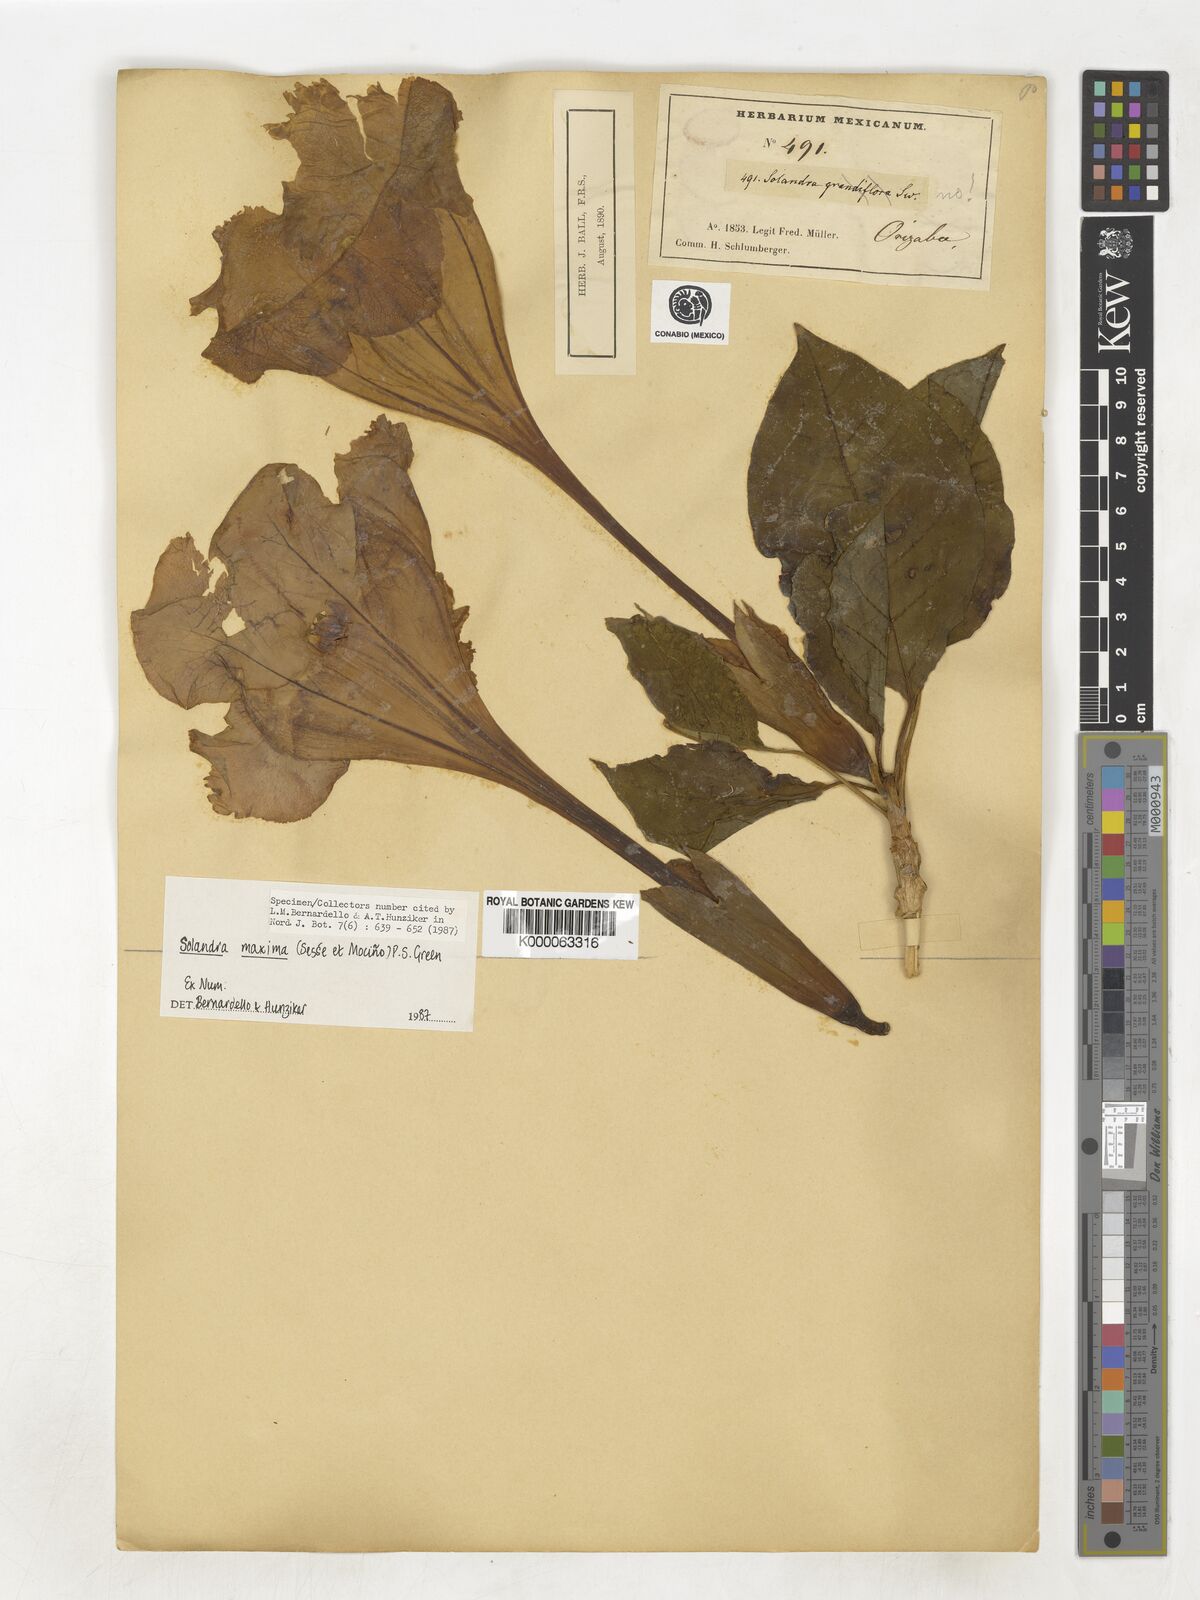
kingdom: Plantae
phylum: Tracheophyta
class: Magnoliopsida
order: Solanales
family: Solanaceae
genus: Solandra
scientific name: Solandra
